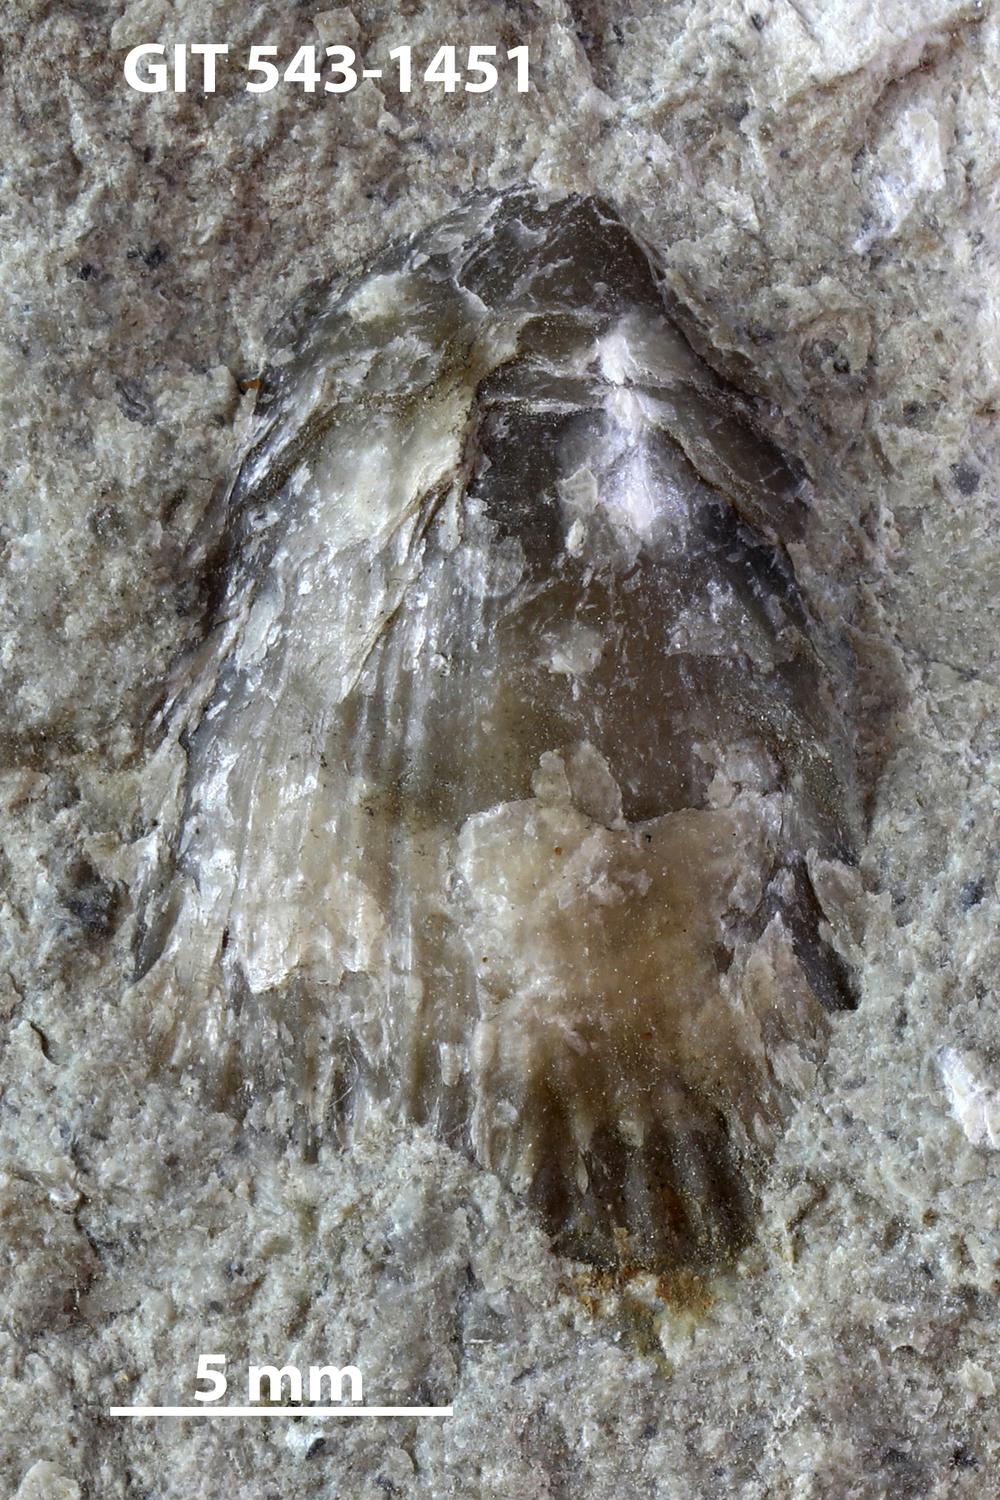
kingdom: Animalia
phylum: Brachiopoda
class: Rhynchonellata
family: Clitambonitidae
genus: Vellamo
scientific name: Vellamo
